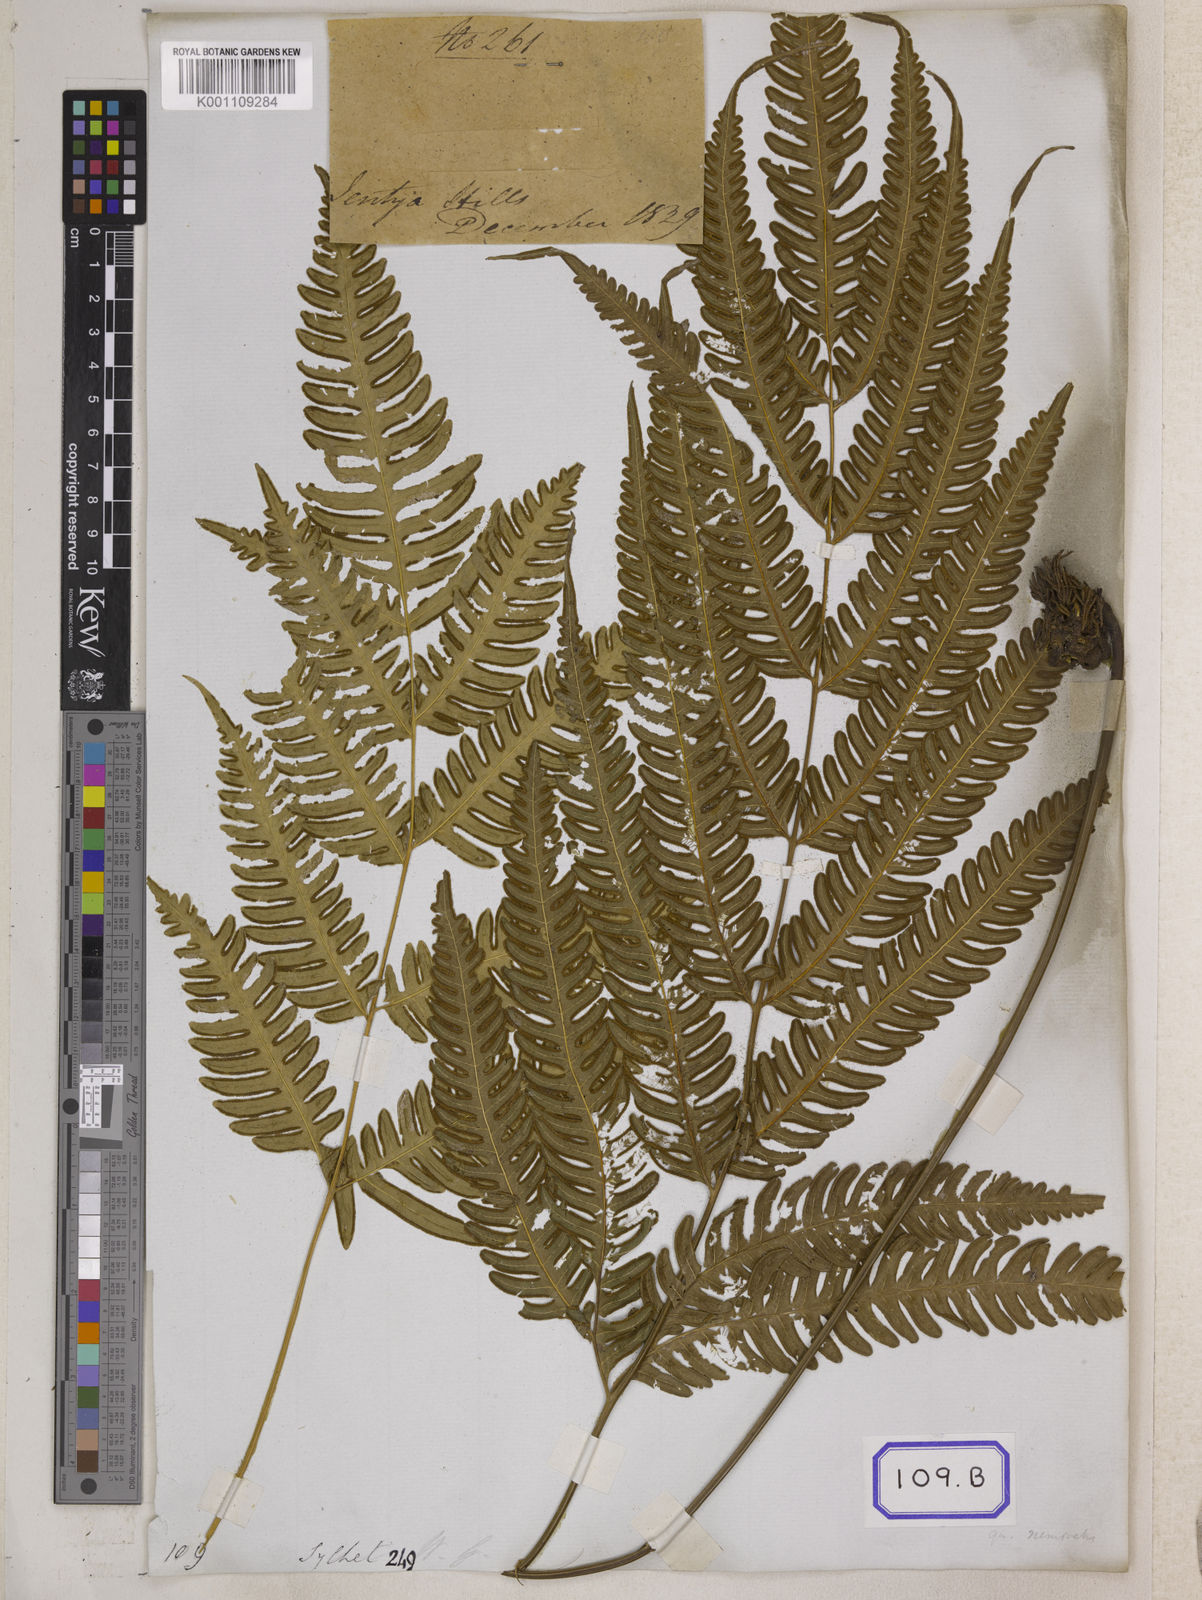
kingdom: Plantae
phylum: Tracheophyta
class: Polypodiopsida
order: Polypodiales
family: Pteridaceae
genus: Pteris
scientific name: Pteris longipes
